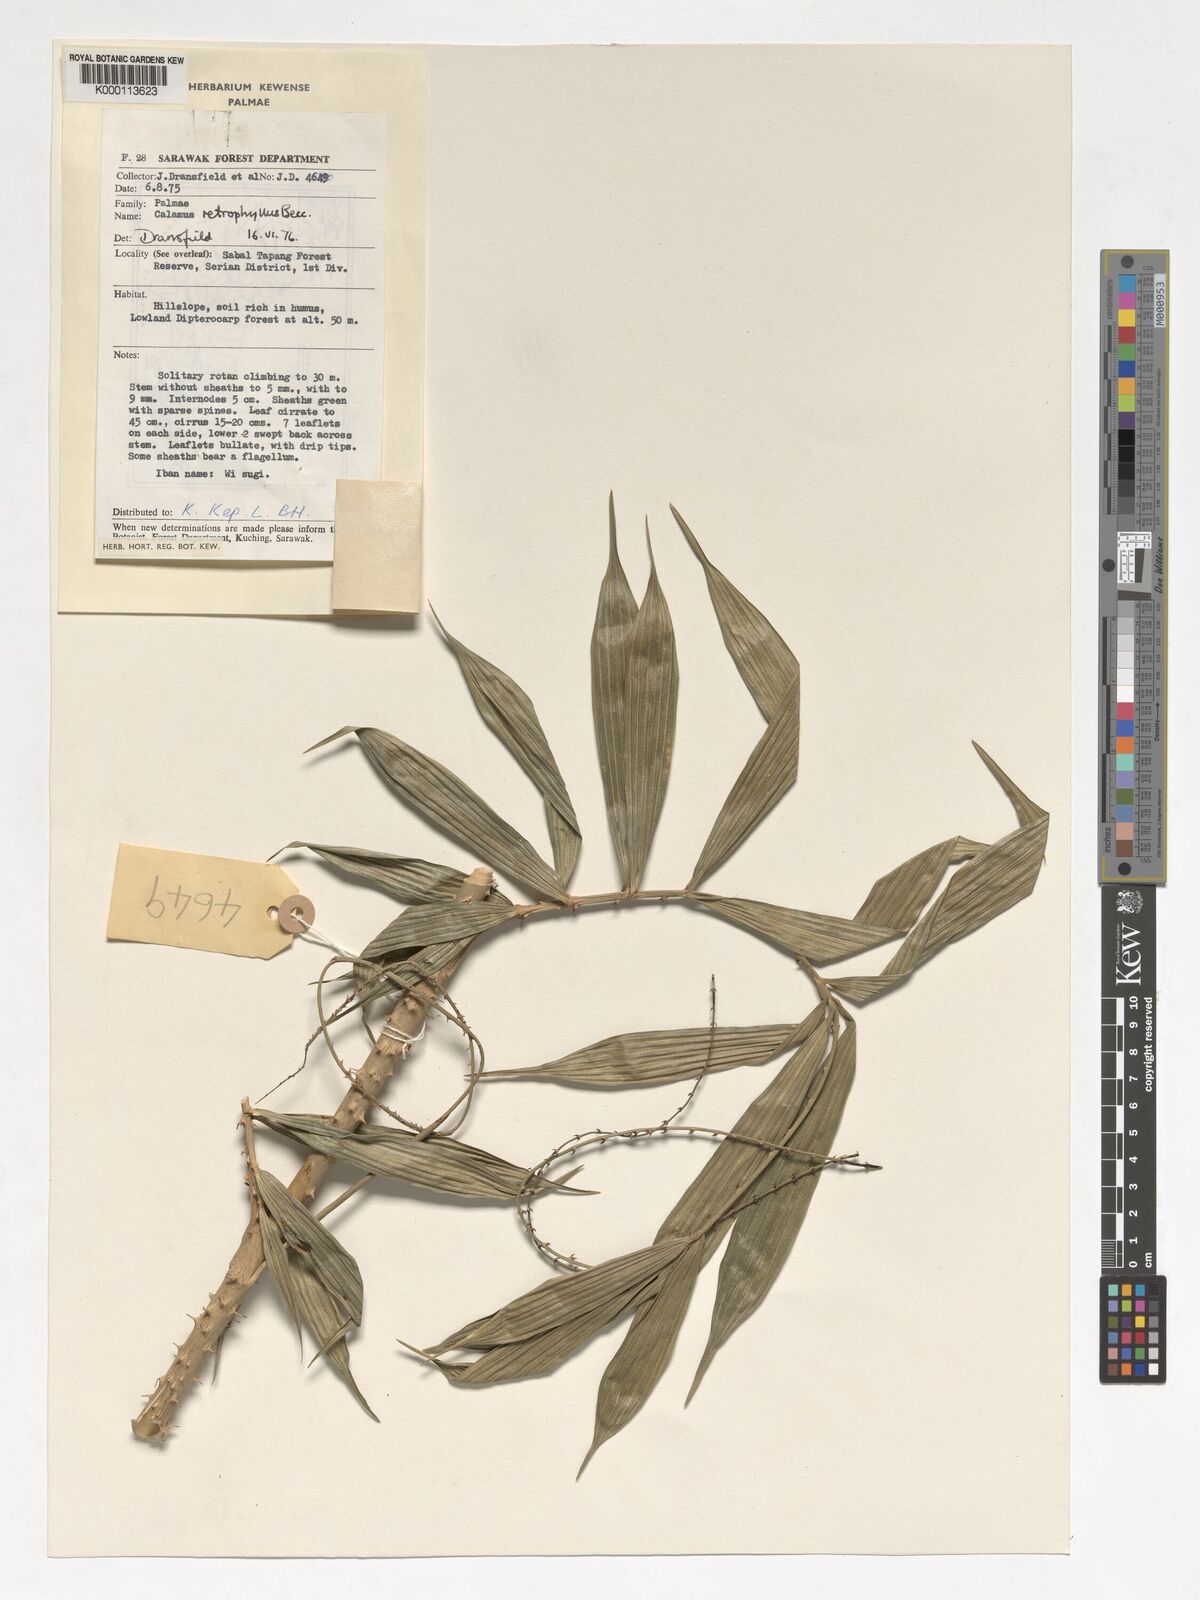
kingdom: Plantae
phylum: Tracheophyta
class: Liliopsida
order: Arecales
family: Arecaceae
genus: Calamus
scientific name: Calamus
